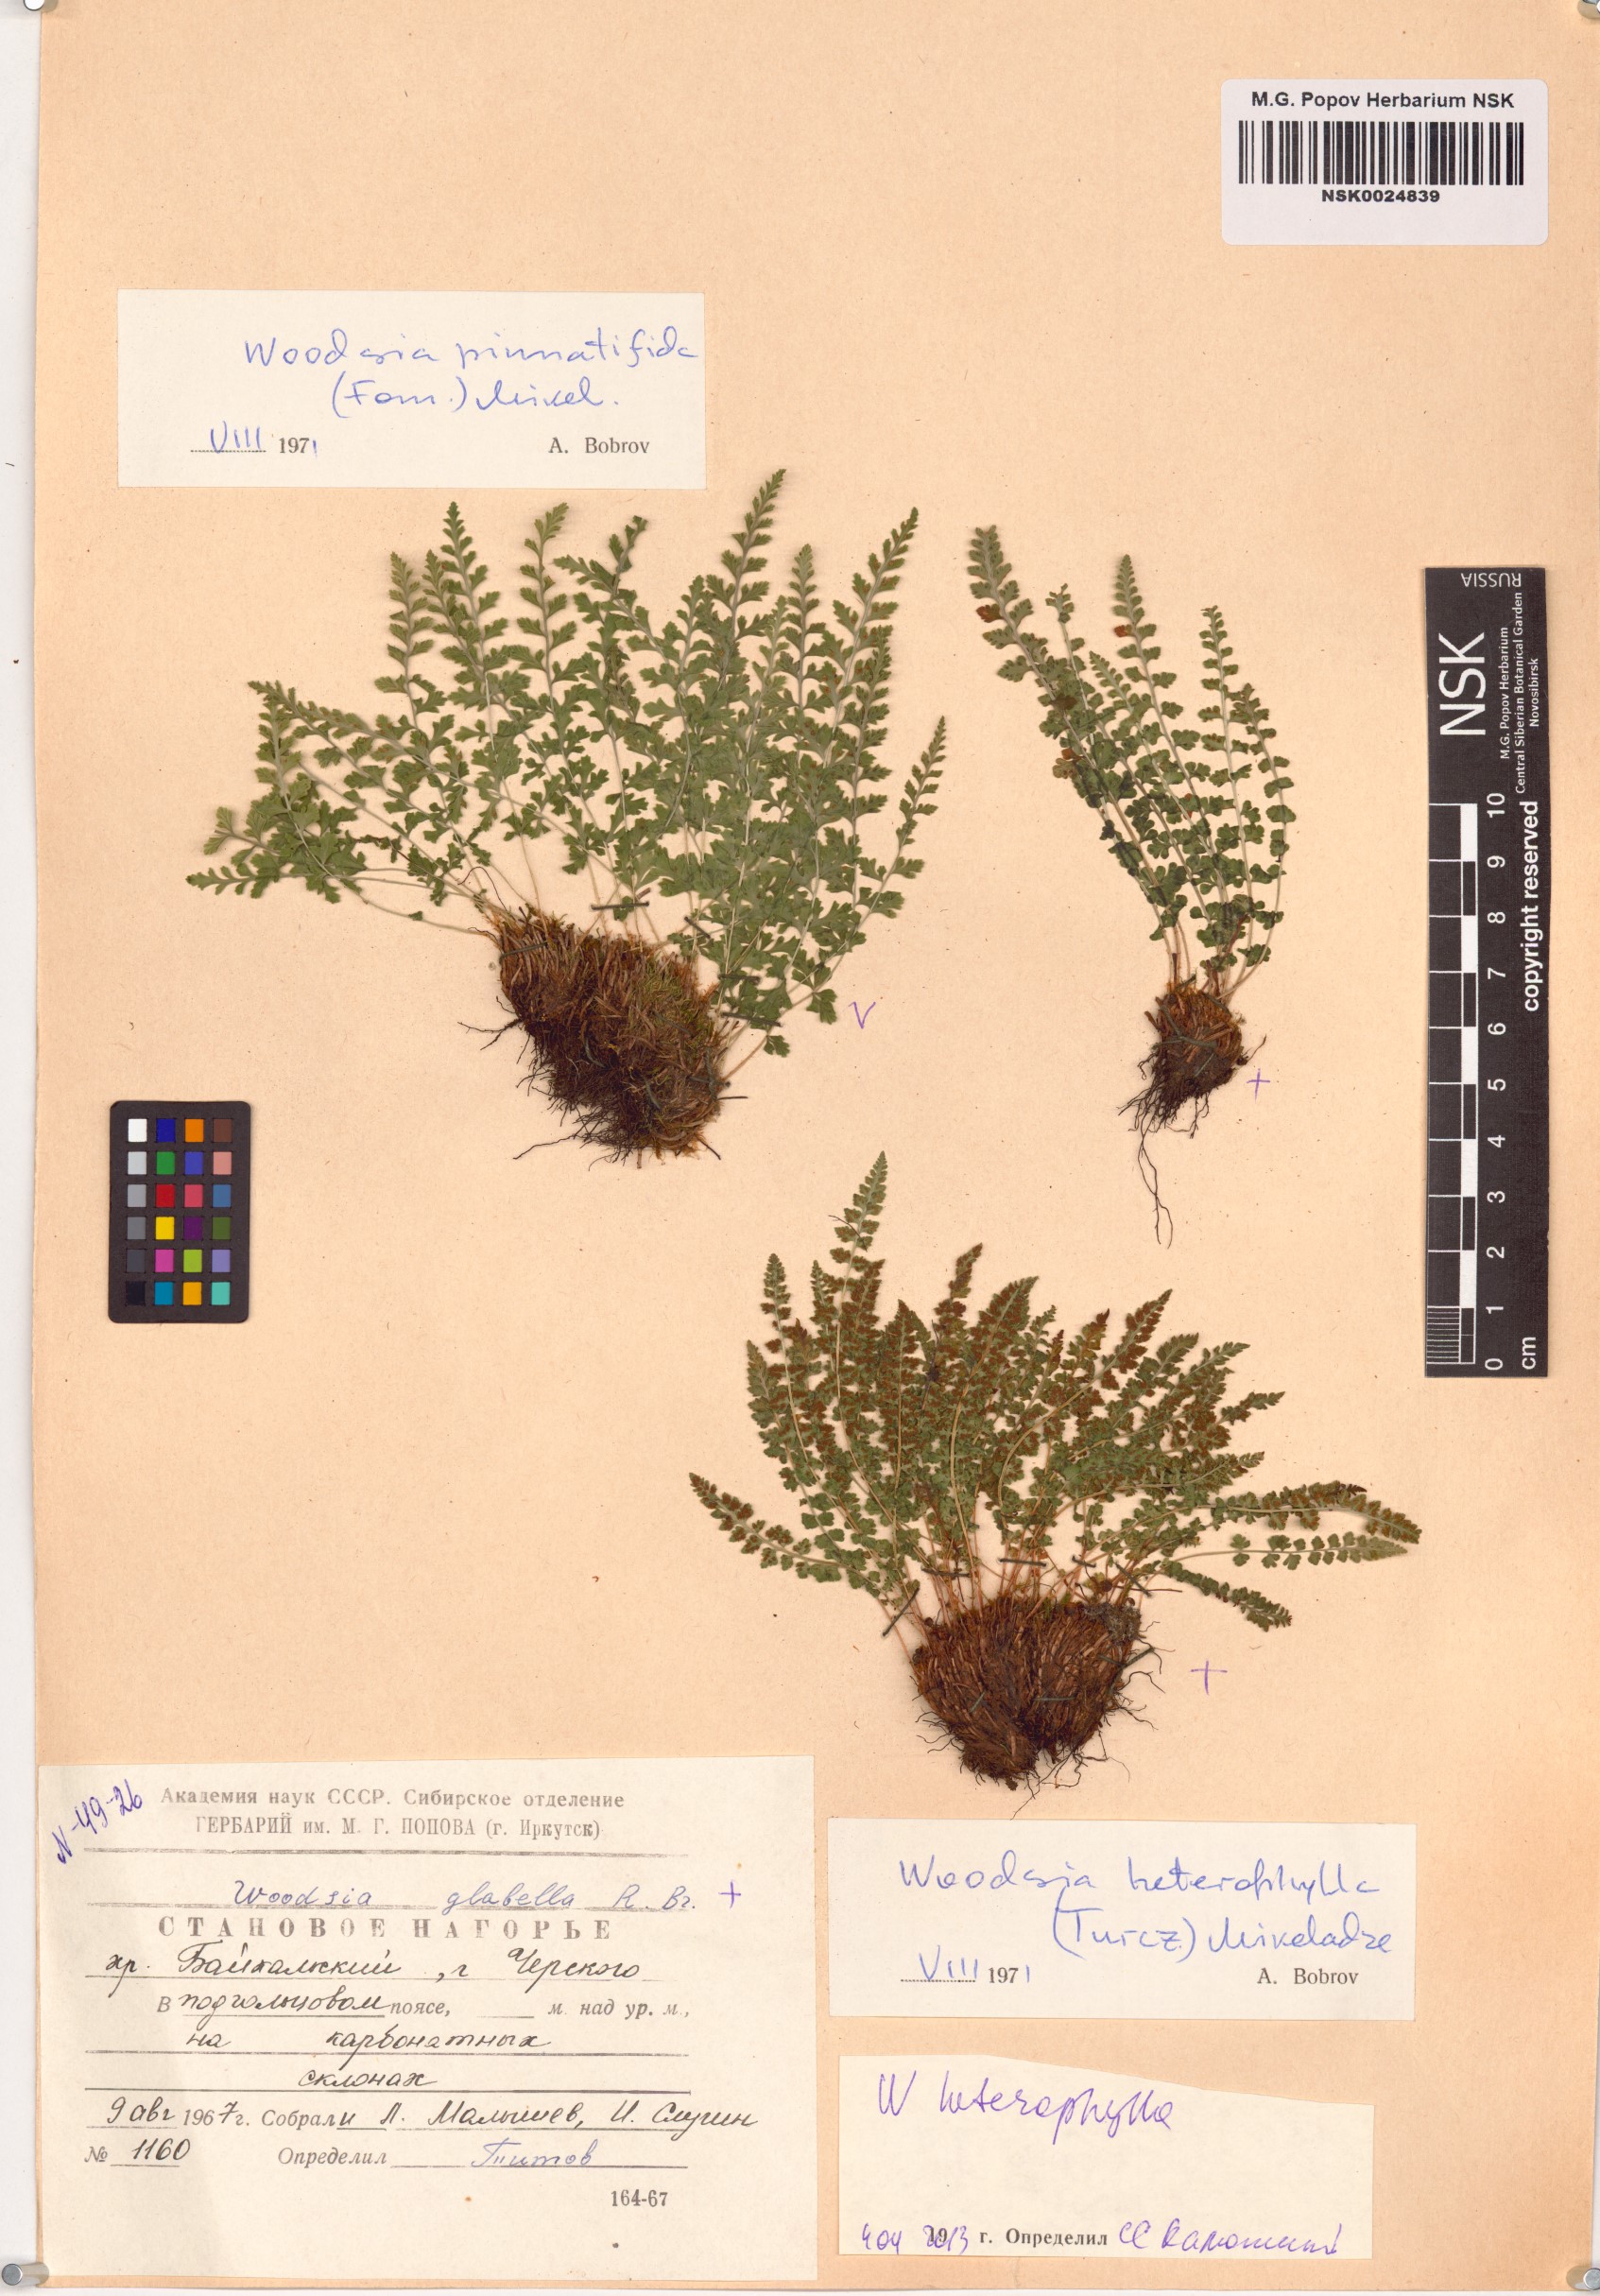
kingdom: Plantae
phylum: Tracheophyta
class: Polypodiopsida
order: Polypodiales
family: Woodsiaceae
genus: Woodsia
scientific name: Woodsia pulchella
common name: Graceful woodsia
